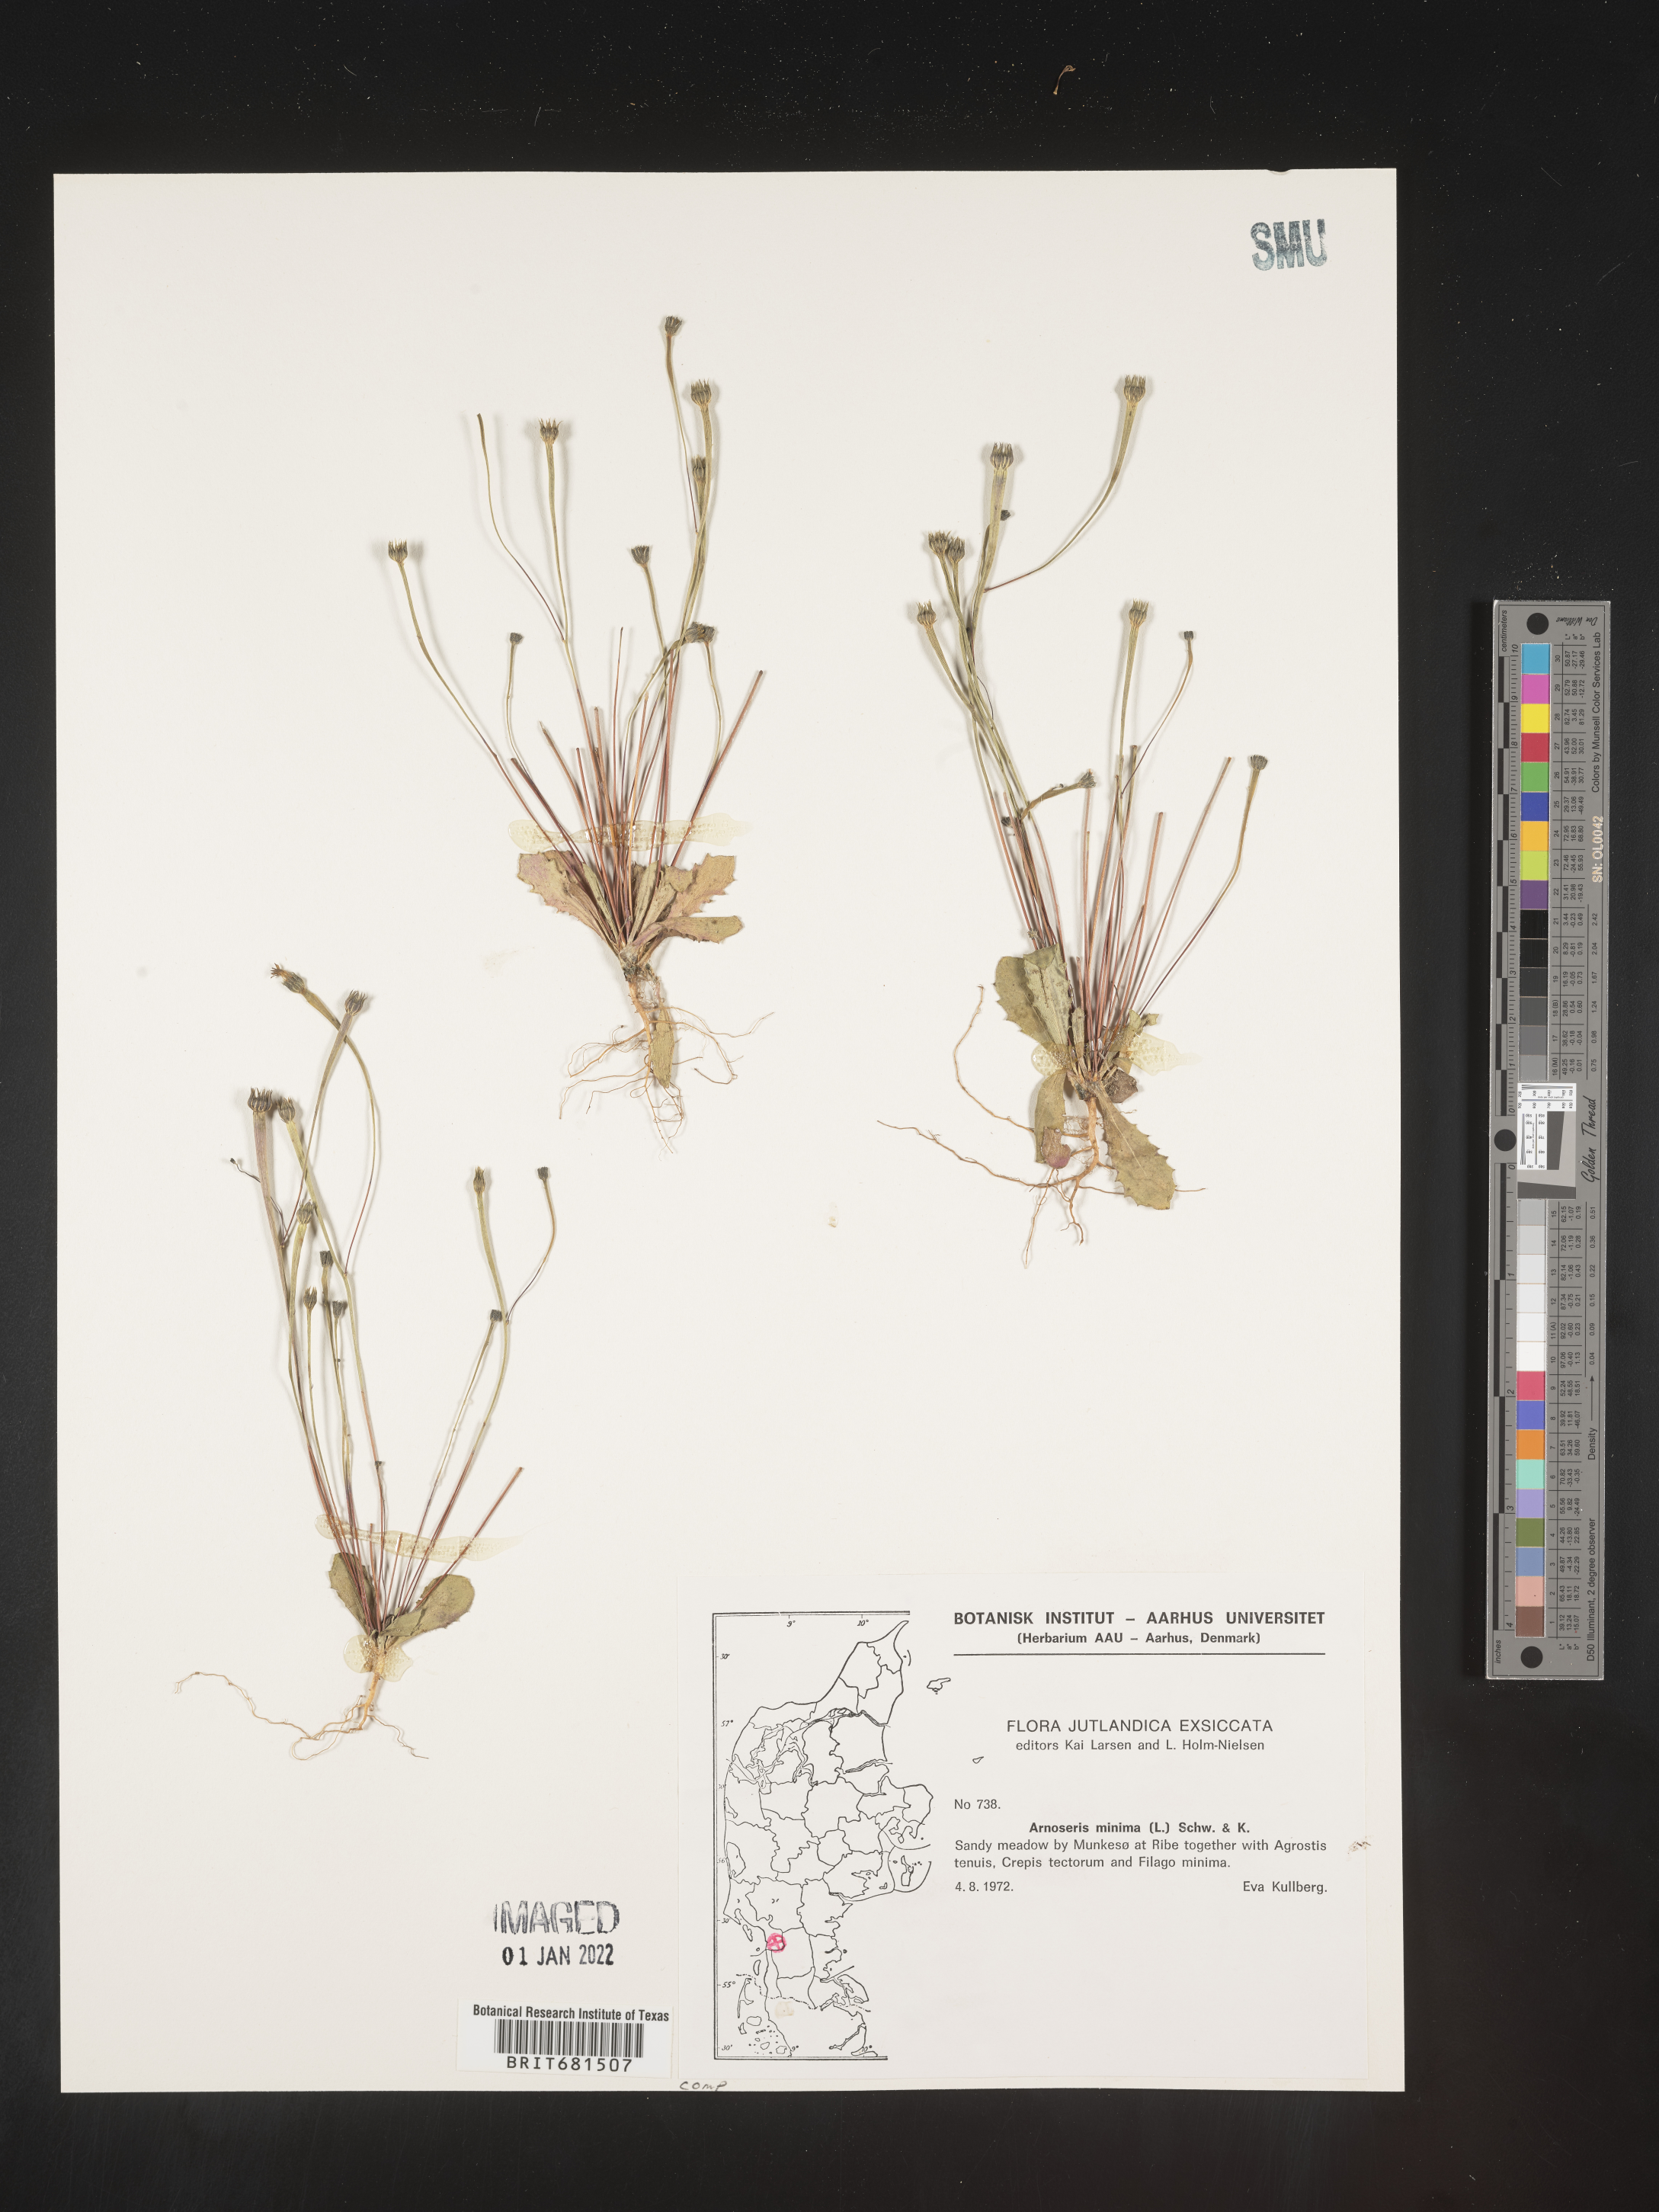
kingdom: Plantae
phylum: Tracheophyta
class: Magnoliopsida
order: Asterales
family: Asteraceae
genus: Arnoseris
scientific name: Arnoseris
